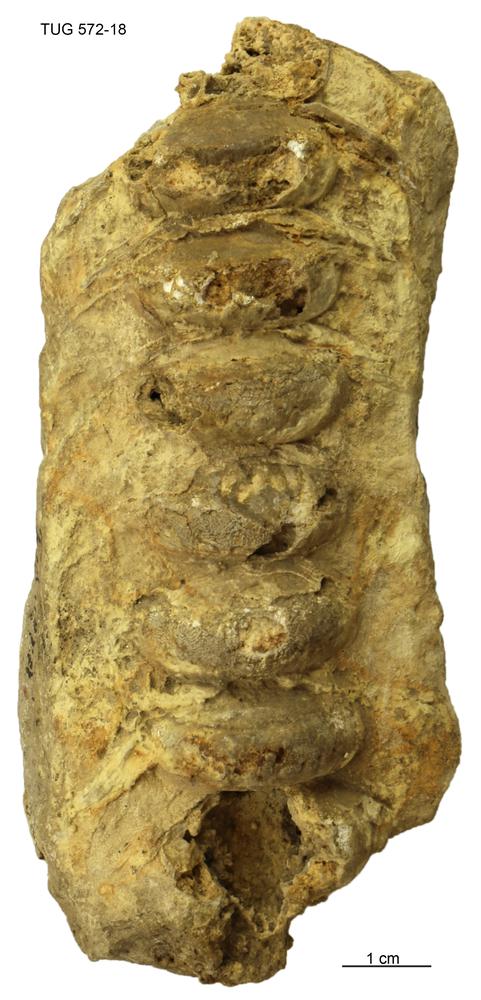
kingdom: Animalia
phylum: Mollusca
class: Cephalopoda
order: Orthocerida
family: Orthoceratidae
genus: Orthoceras
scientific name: Orthoceras
